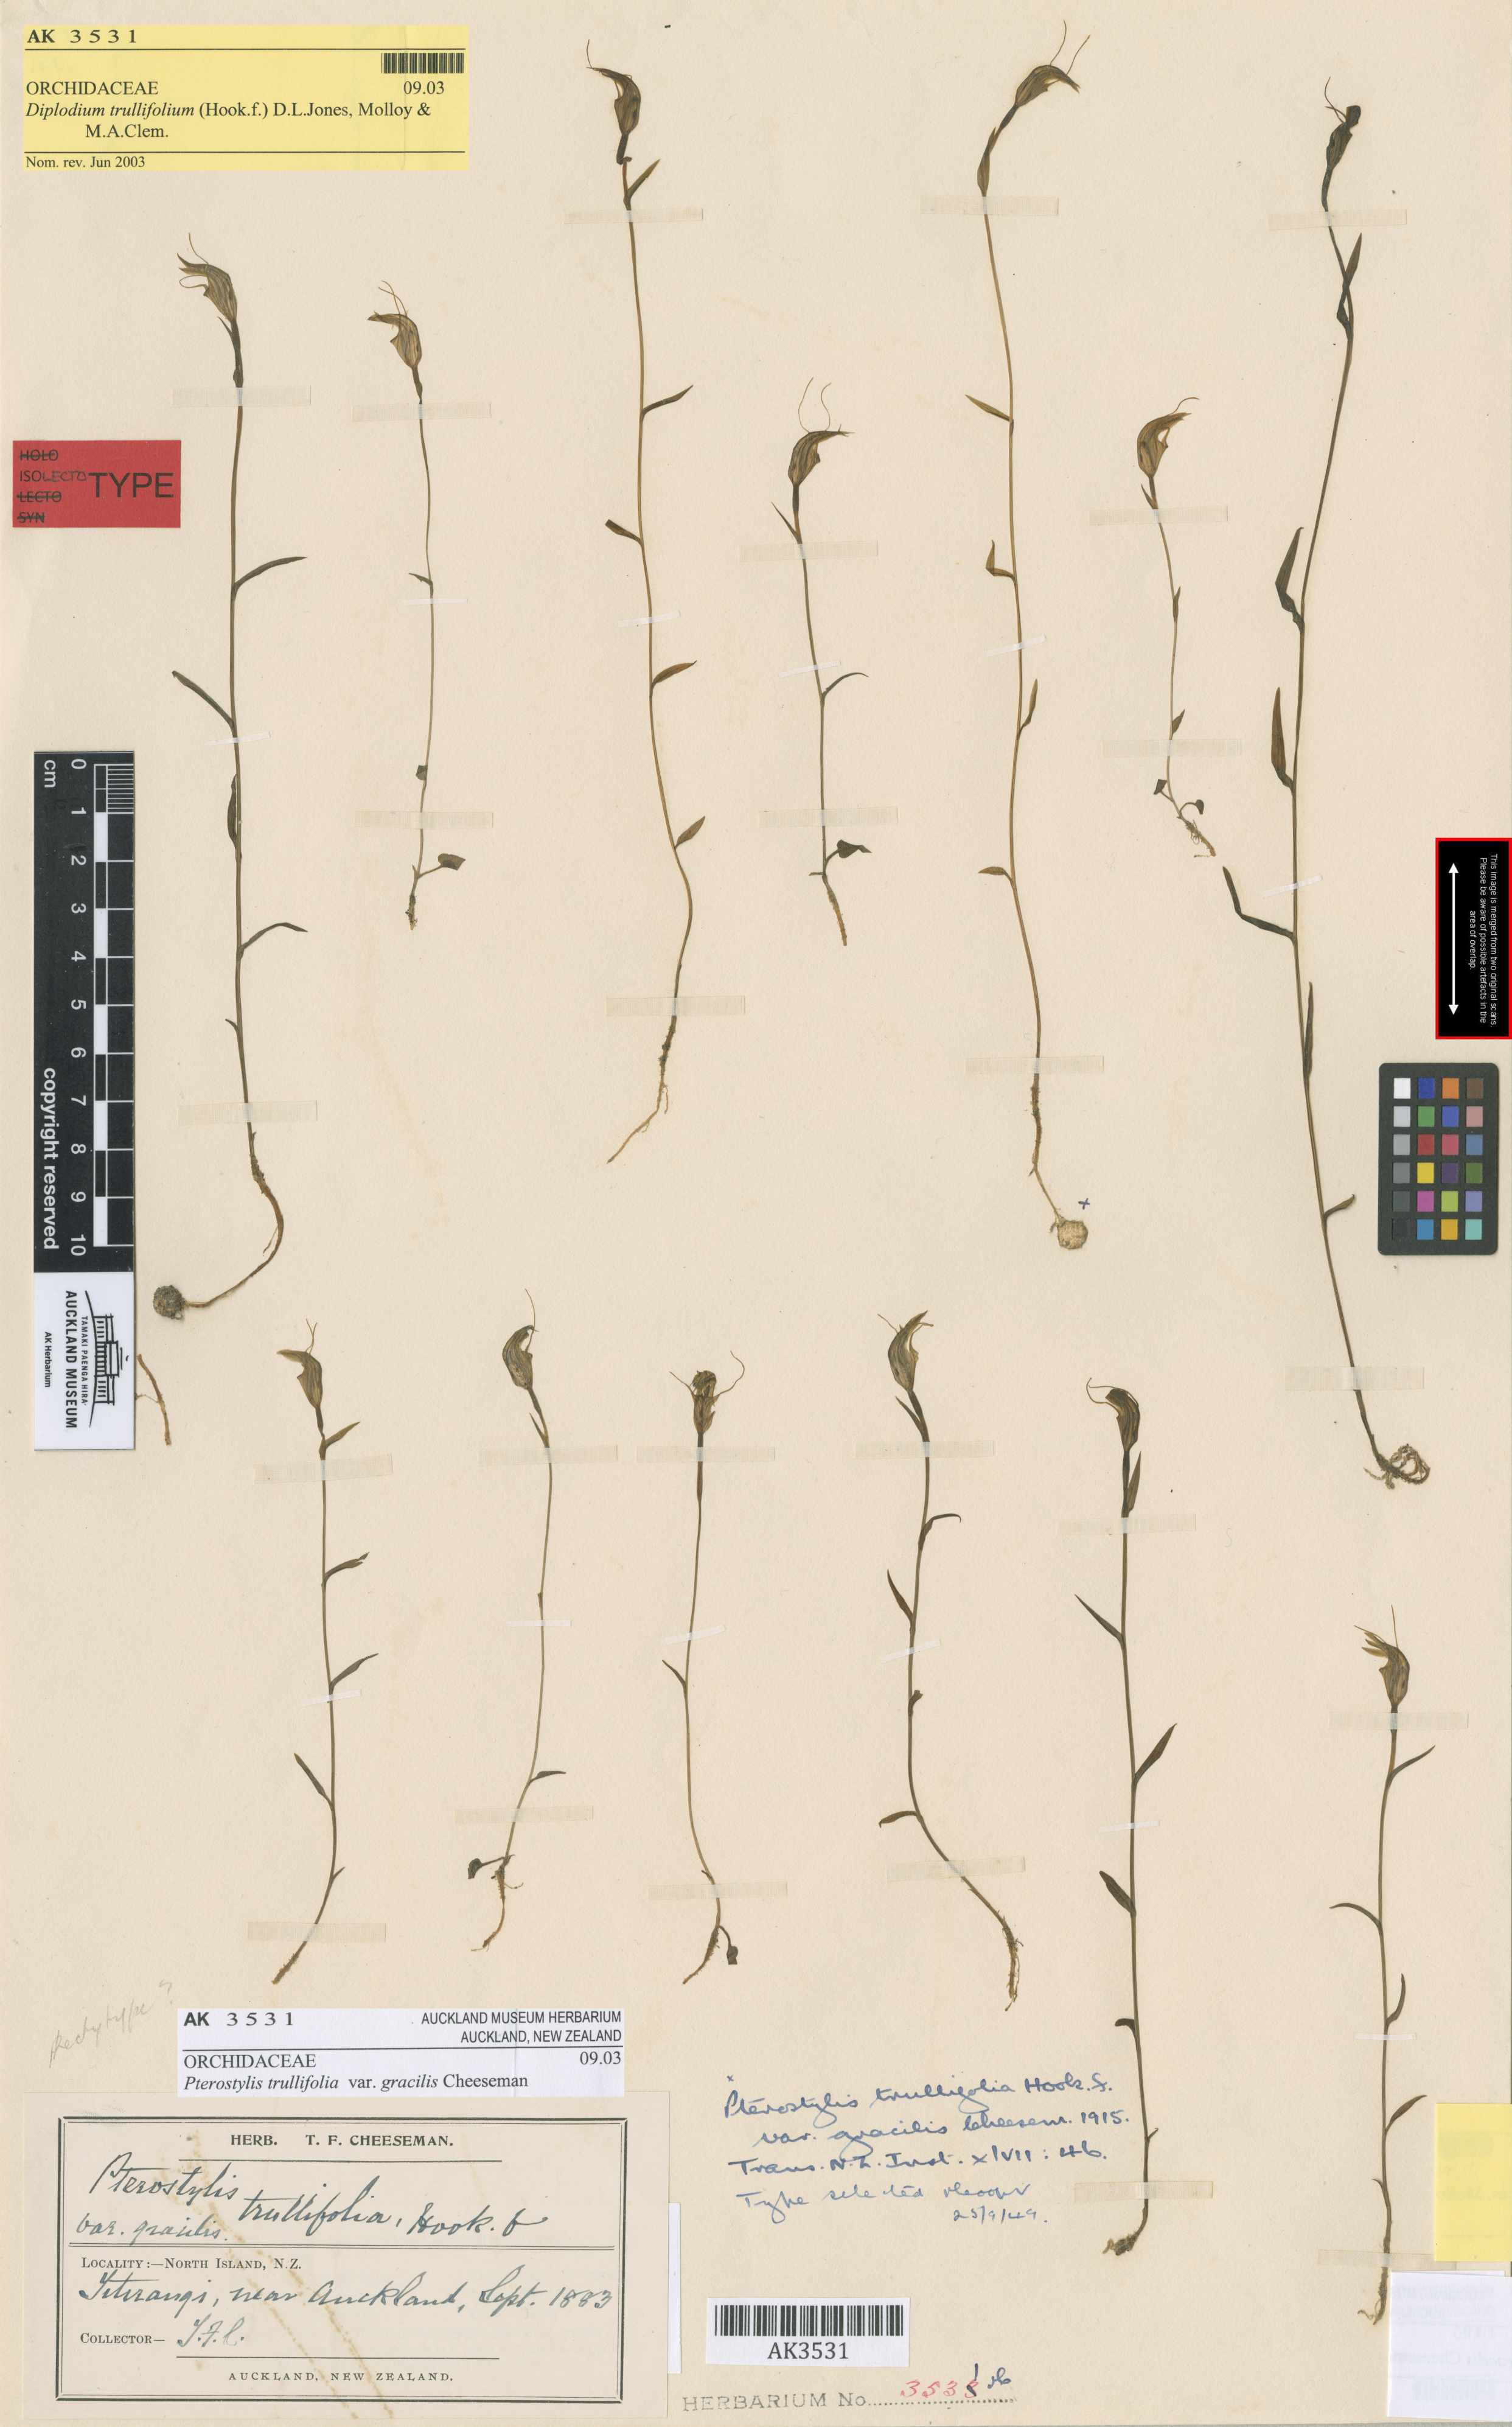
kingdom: Plantae
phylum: Tracheophyta
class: Liliopsida
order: Asparagales
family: Orchidaceae
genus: Pterostylis
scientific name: Pterostylis trullifolia
